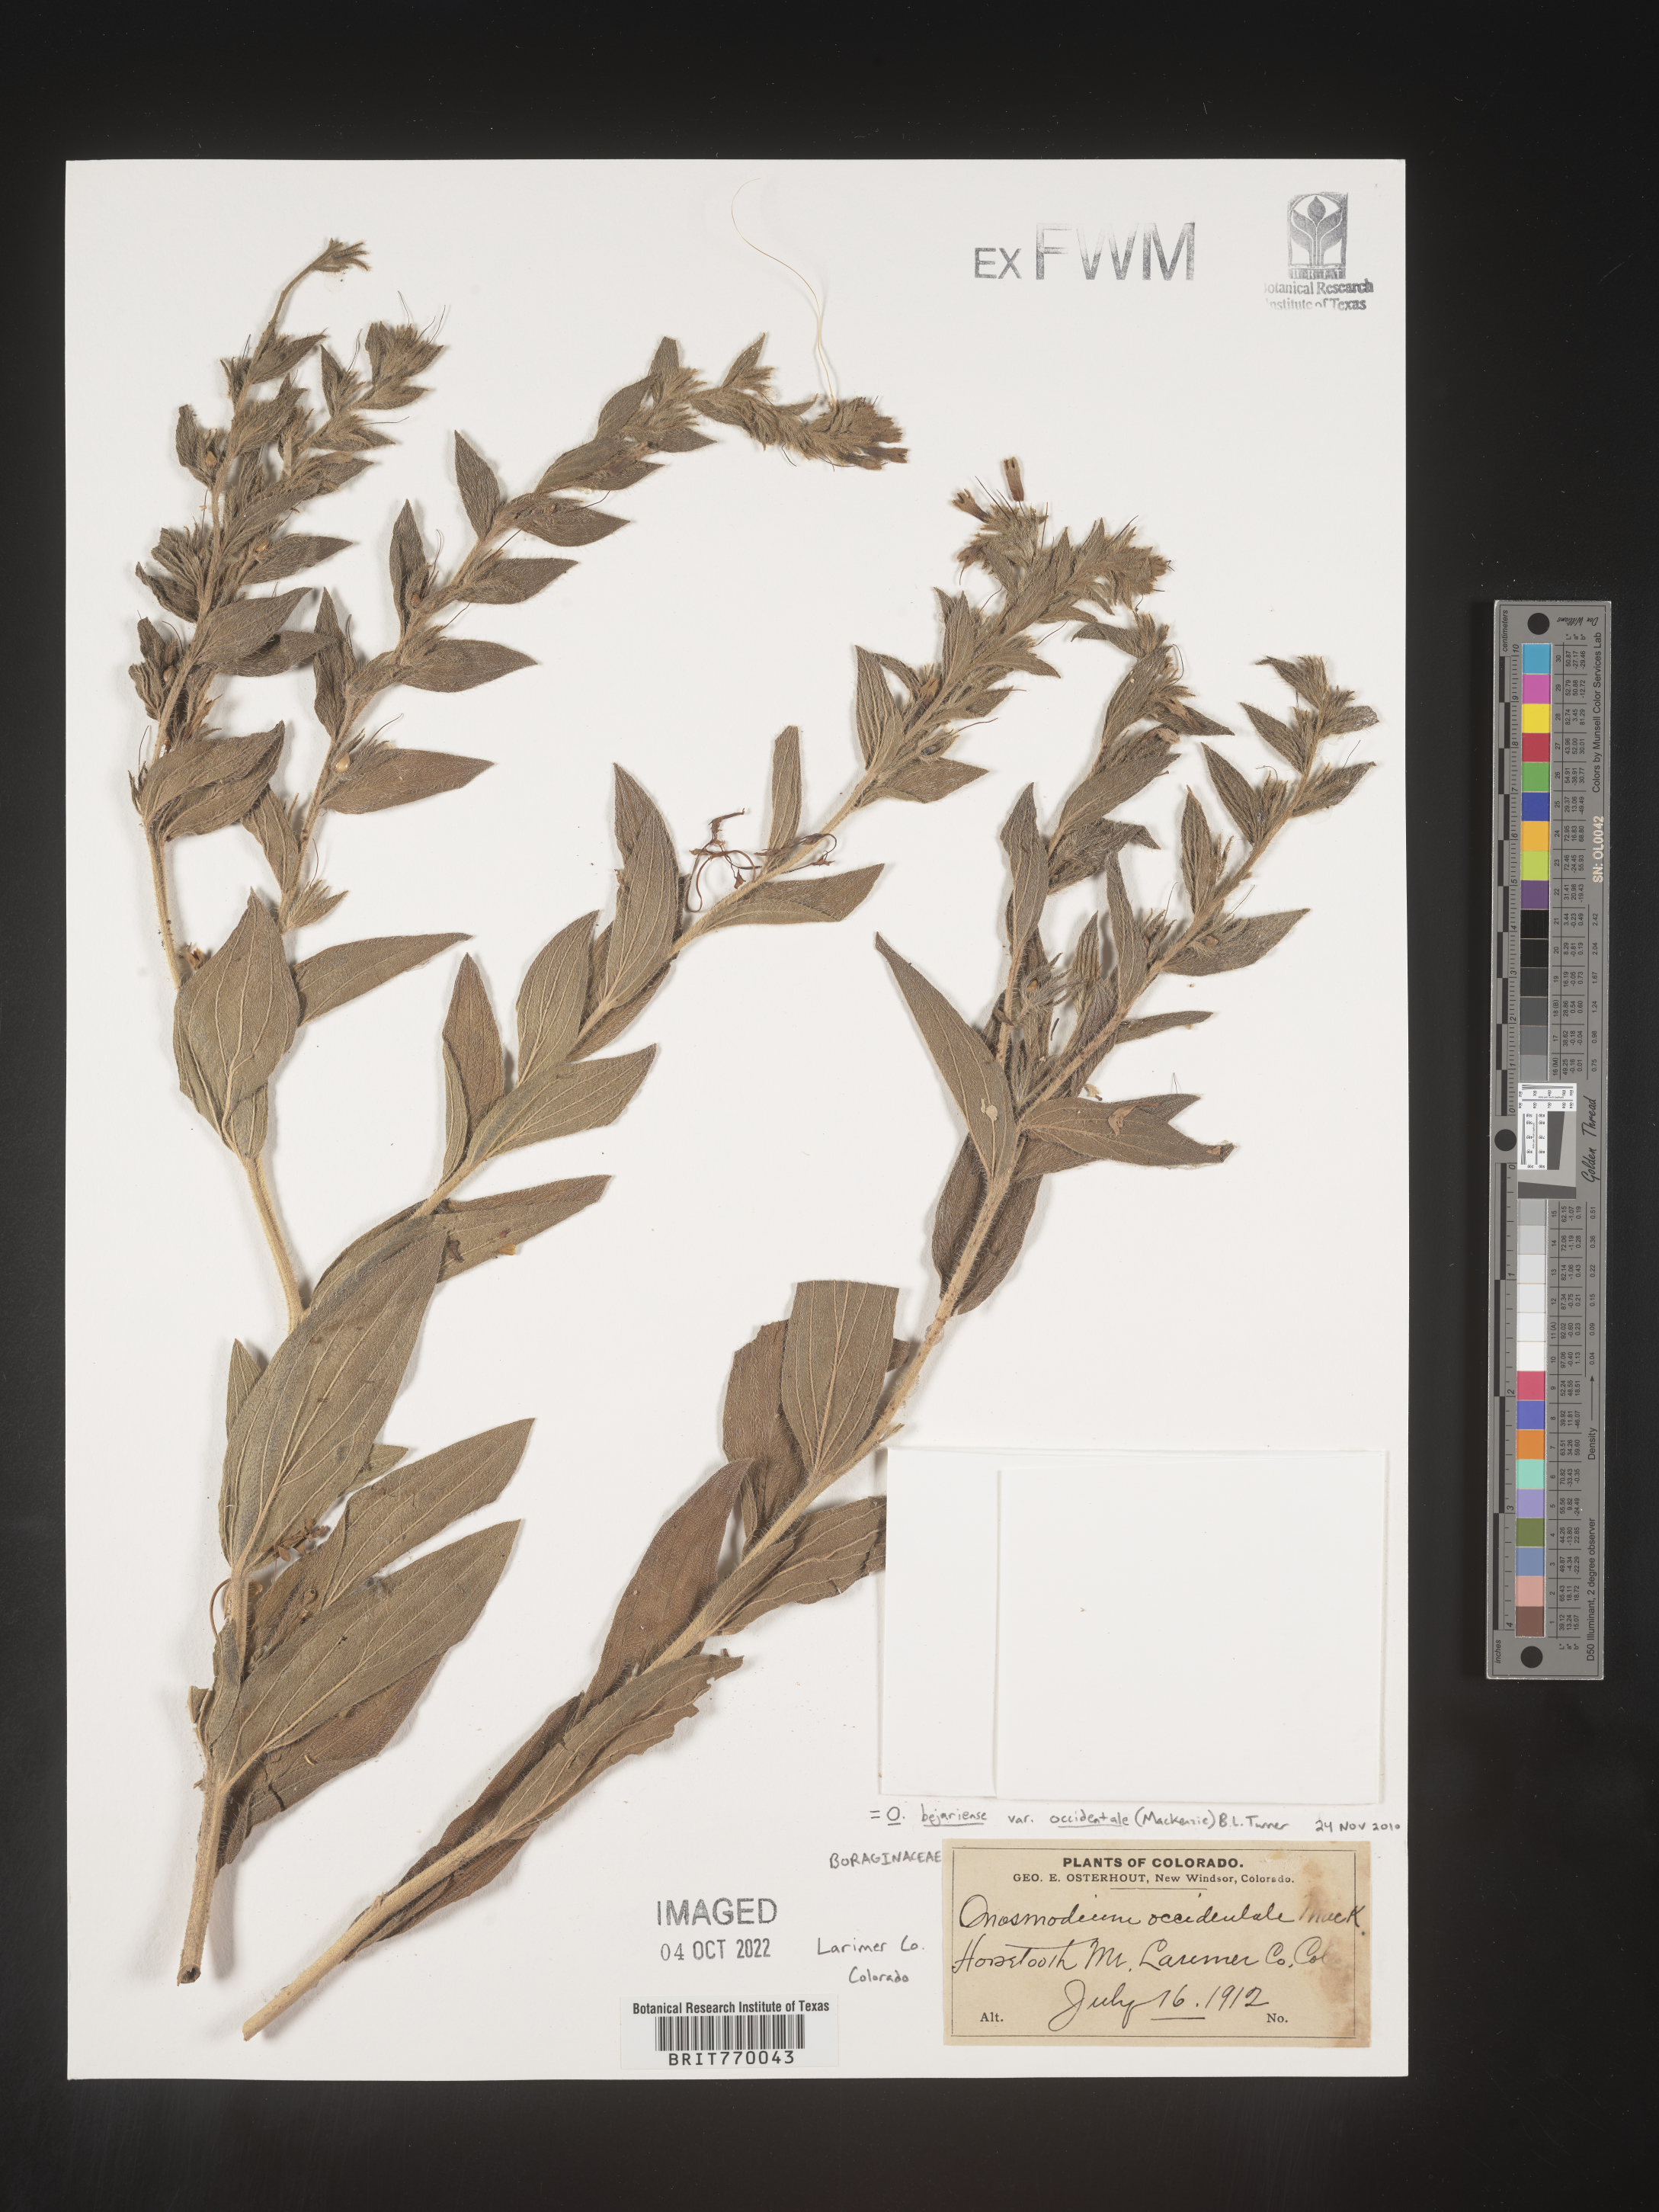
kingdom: Plantae
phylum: Tracheophyta
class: Magnoliopsida
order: Boraginales
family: Boraginaceae
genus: Lithospermum
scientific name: Lithospermum occidentale
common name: Western false gromwell
